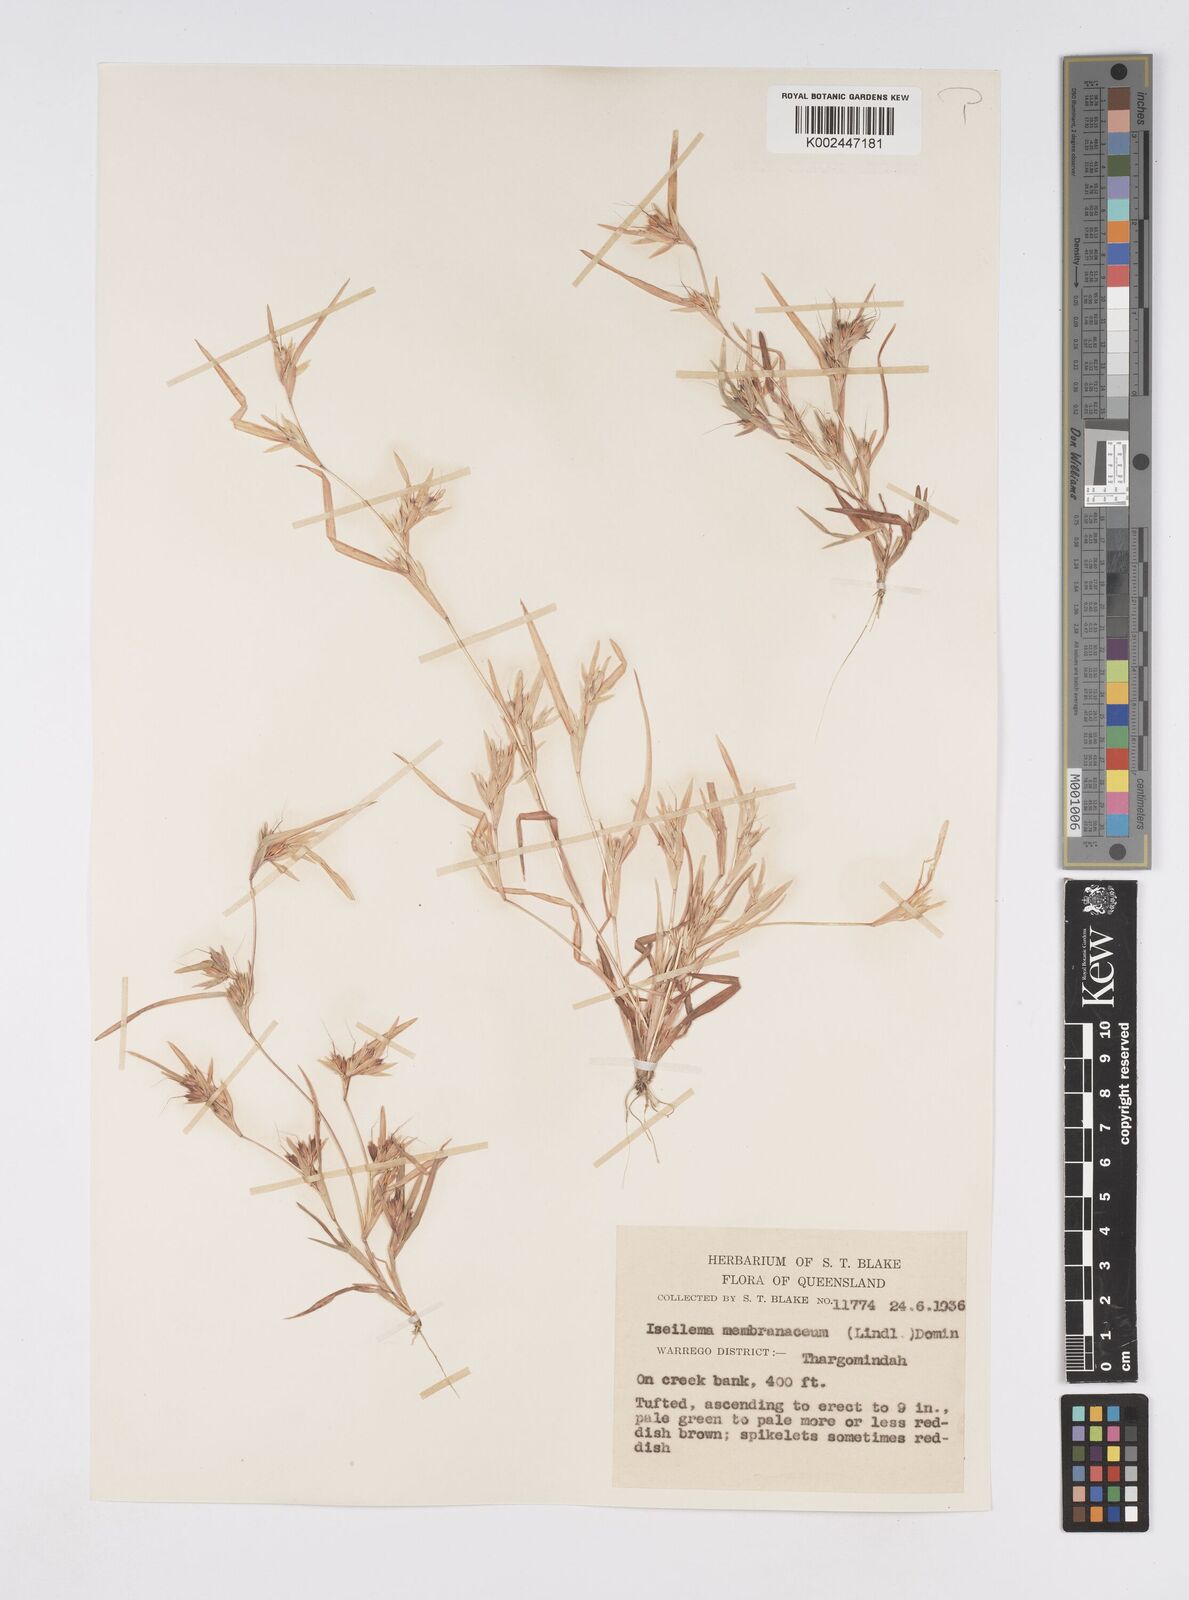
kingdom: Plantae
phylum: Tracheophyta
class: Liliopsida
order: Poales
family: Poaceae
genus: Iseilema
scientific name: Iseilema membranaceum
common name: Small flinders grass
